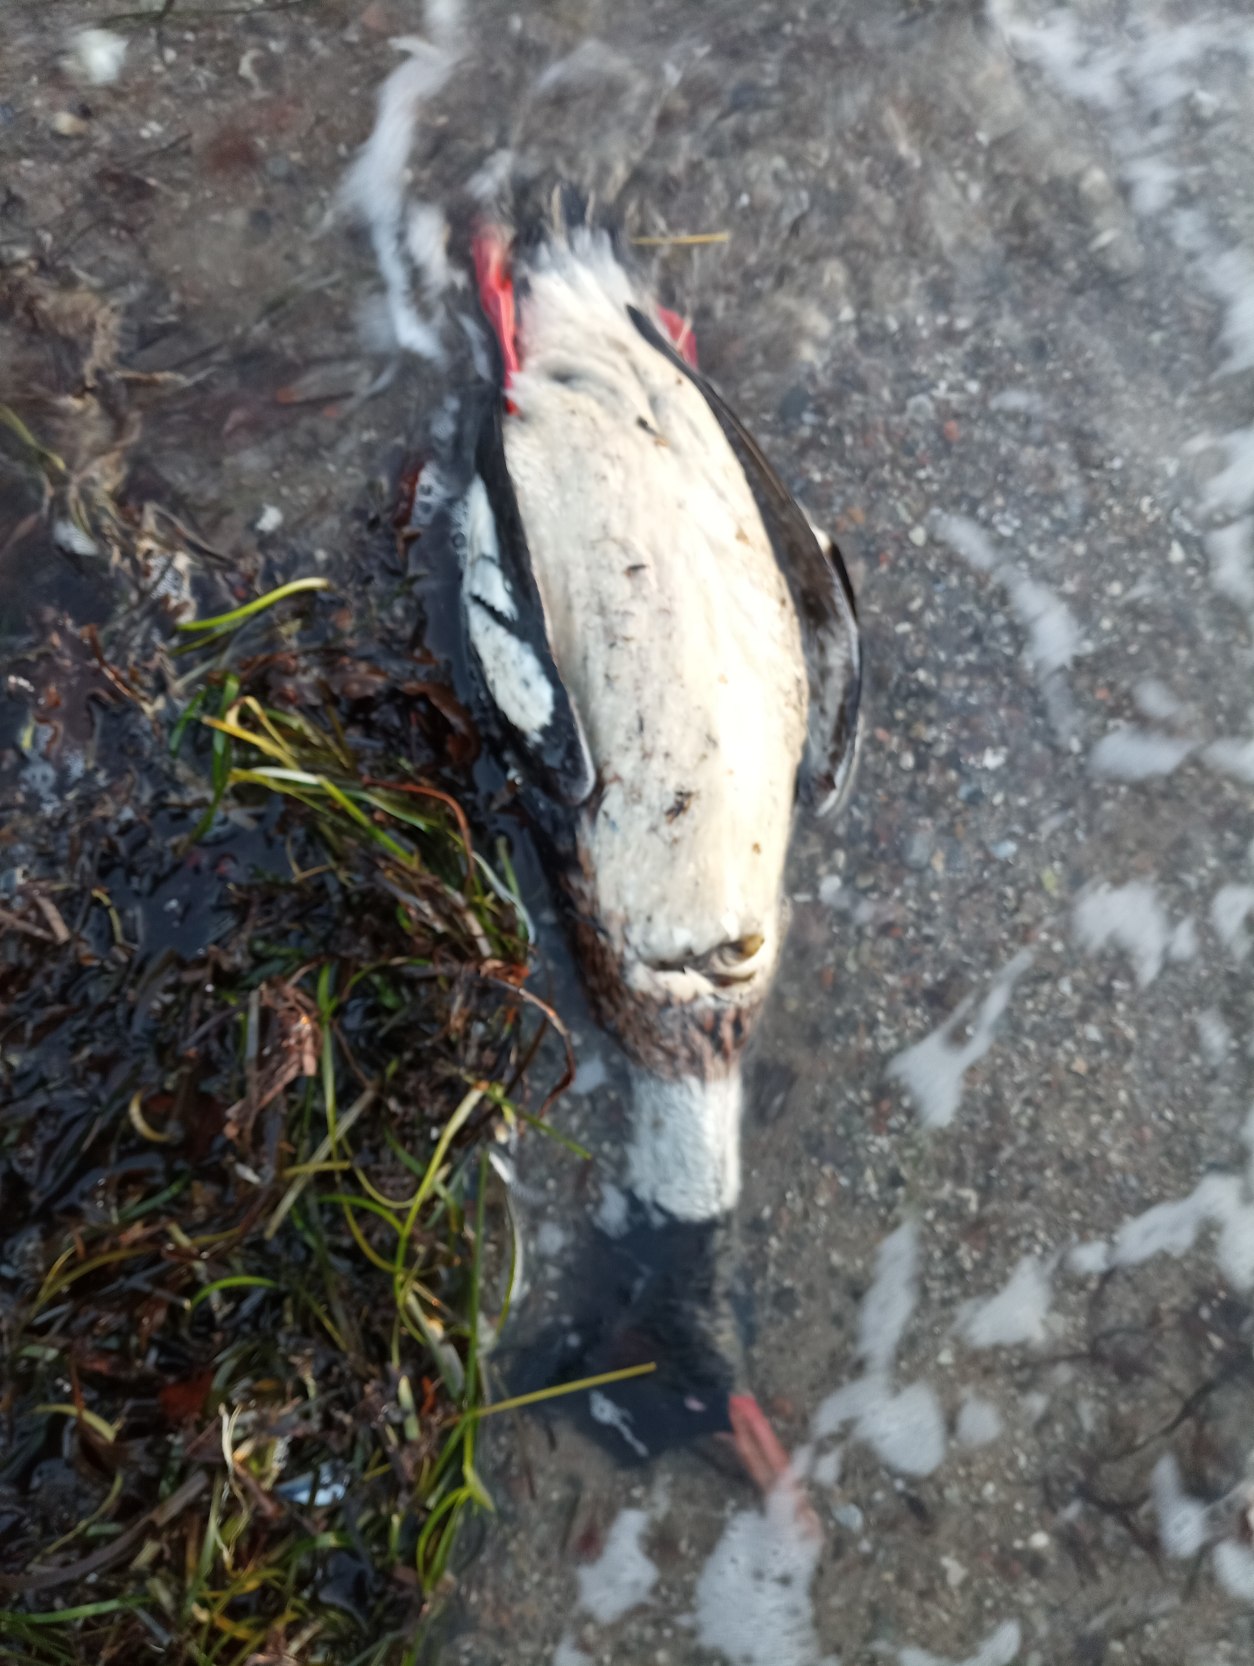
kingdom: Animalia
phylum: Chordata
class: Aves
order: Anseriformes
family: Anatidae
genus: Mergus
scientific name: Mergus serrator
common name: Toppet skallesluger
